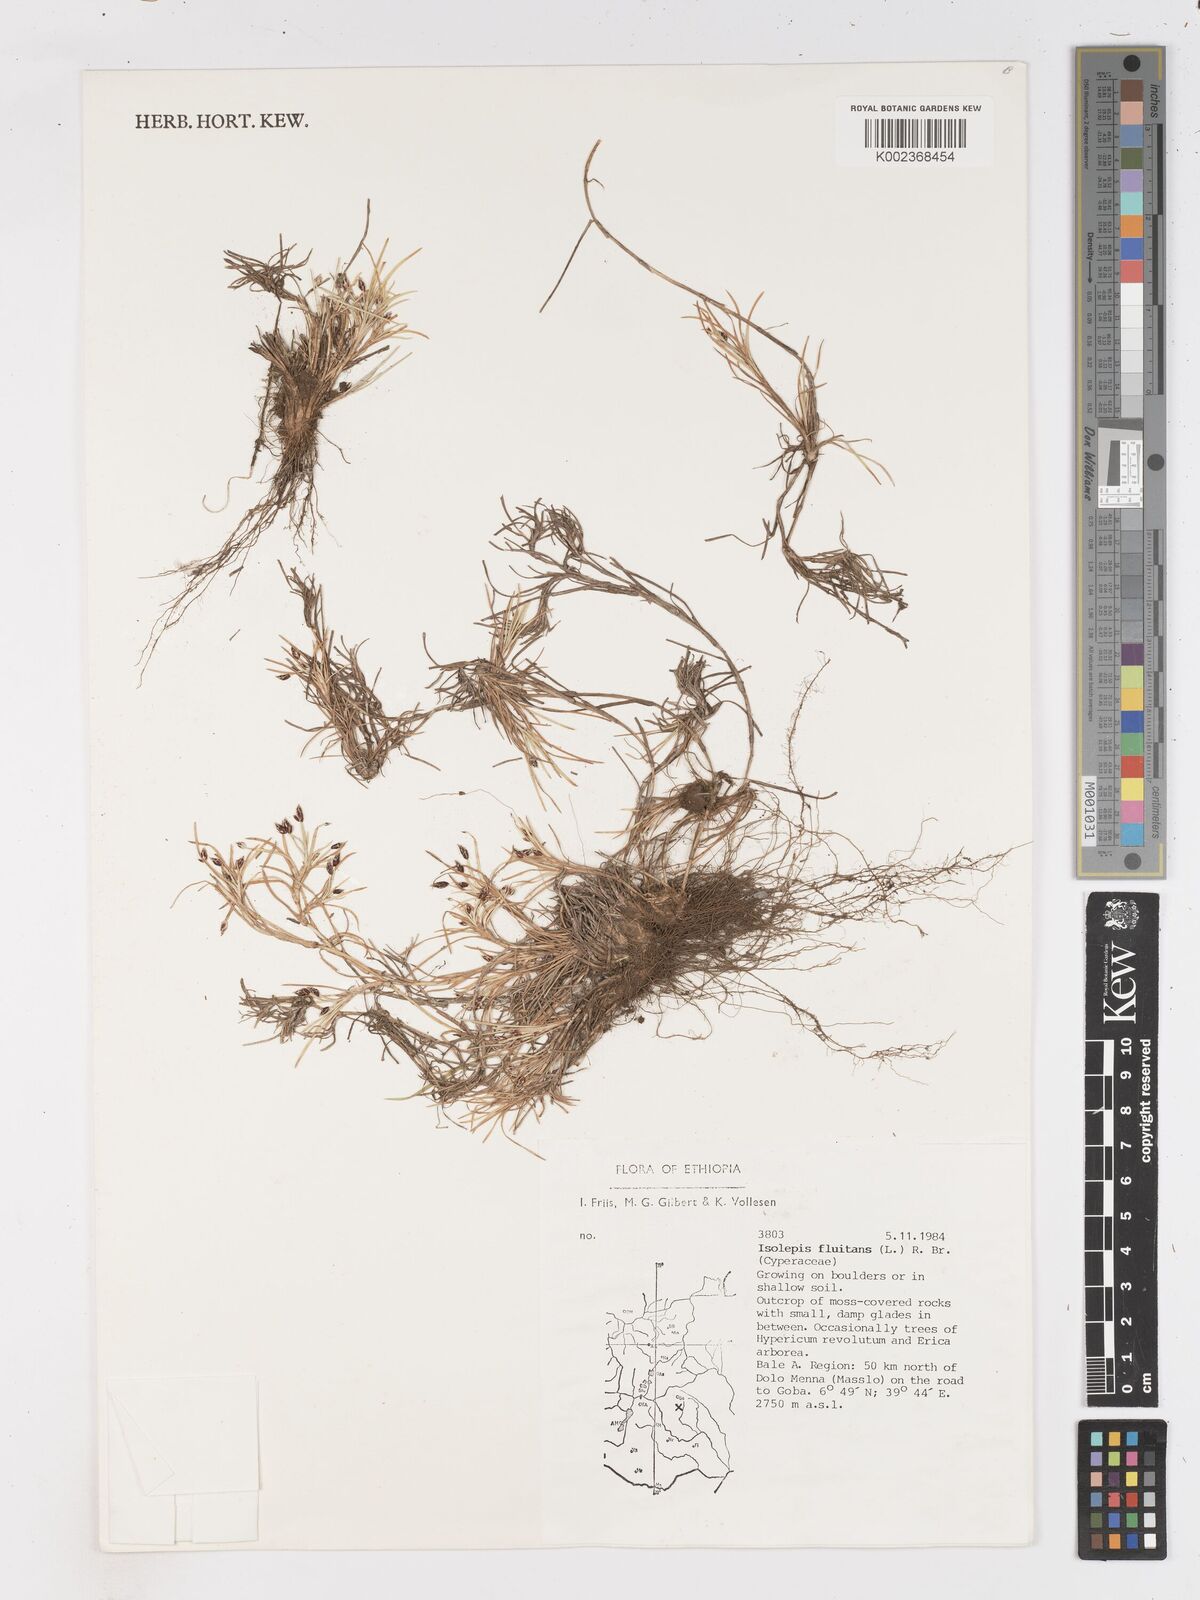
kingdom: Plantae
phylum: Tracheophyta
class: Liliopsida
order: Poales
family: Cyperaceae
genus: Isolepis
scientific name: Isolepis fluitans
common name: Floating club-rush
